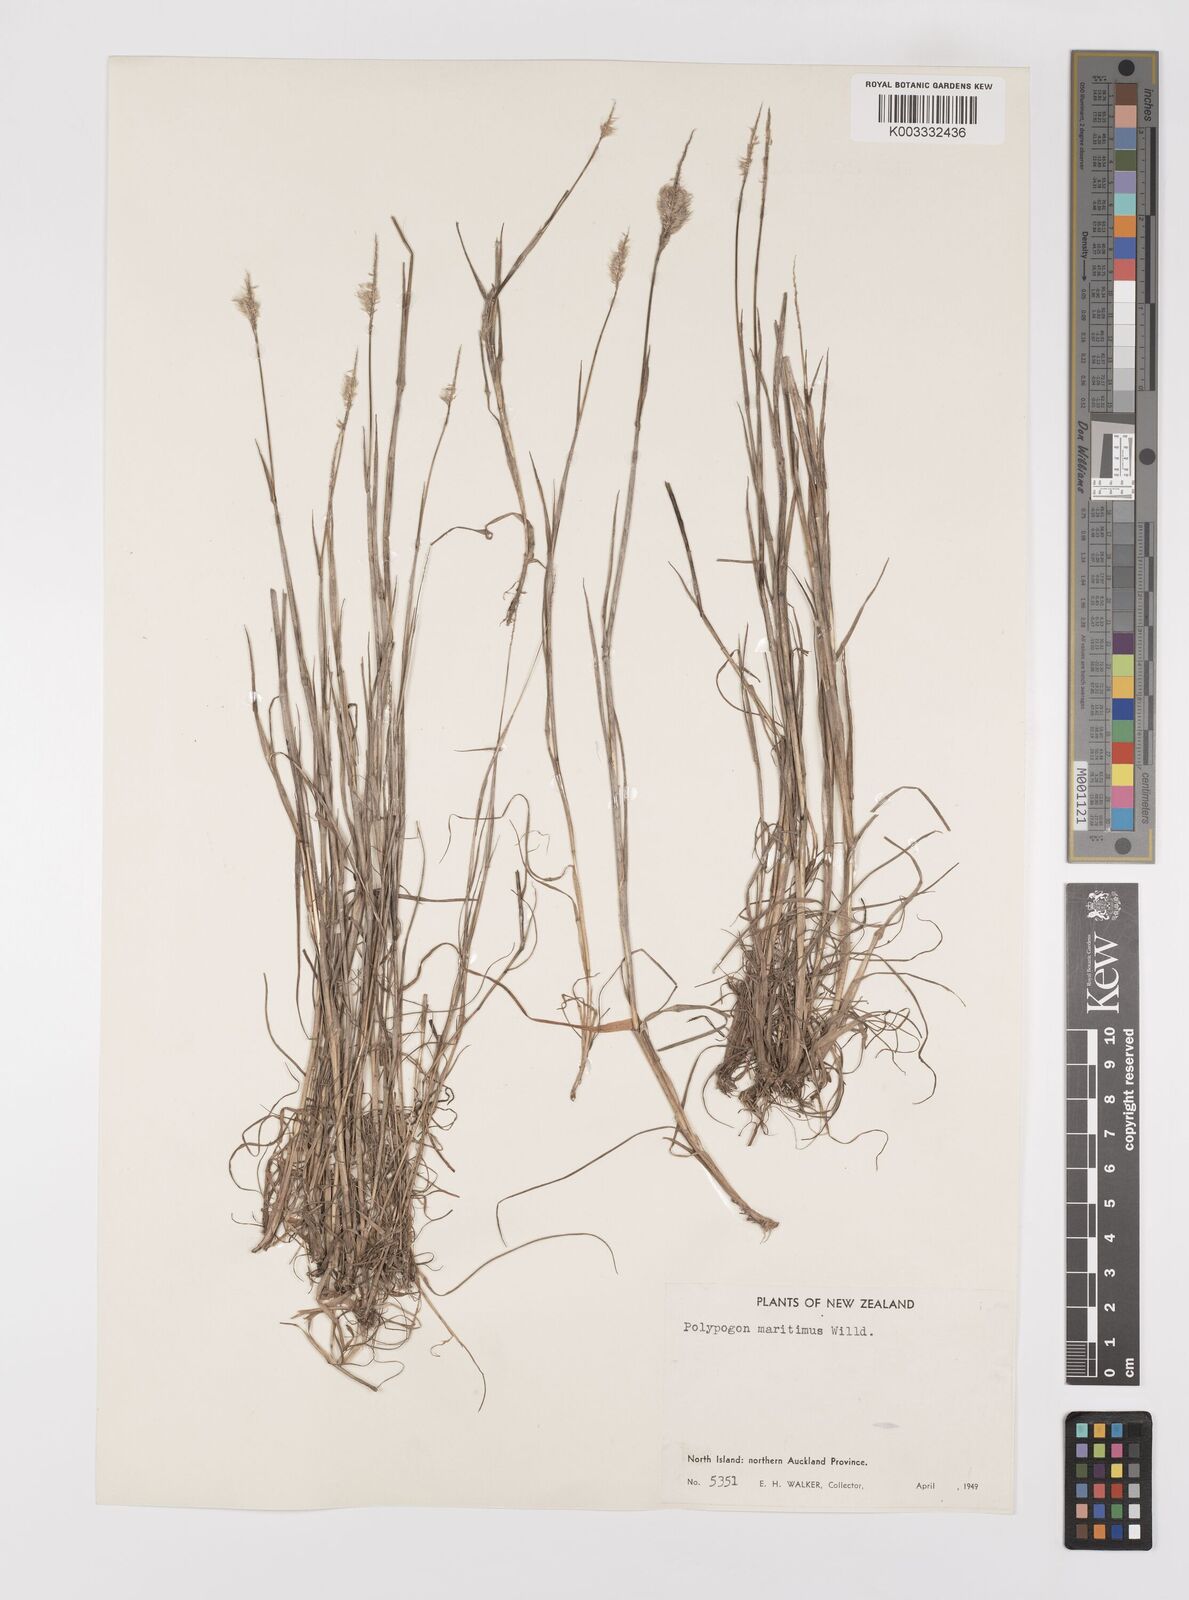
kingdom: Plantae
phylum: Tracheophyta
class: Liliopsida
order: Poales
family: Poaceae
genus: Polypogon
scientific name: Polypogon maritimus
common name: Mediterranean rabbitsfoot grass
